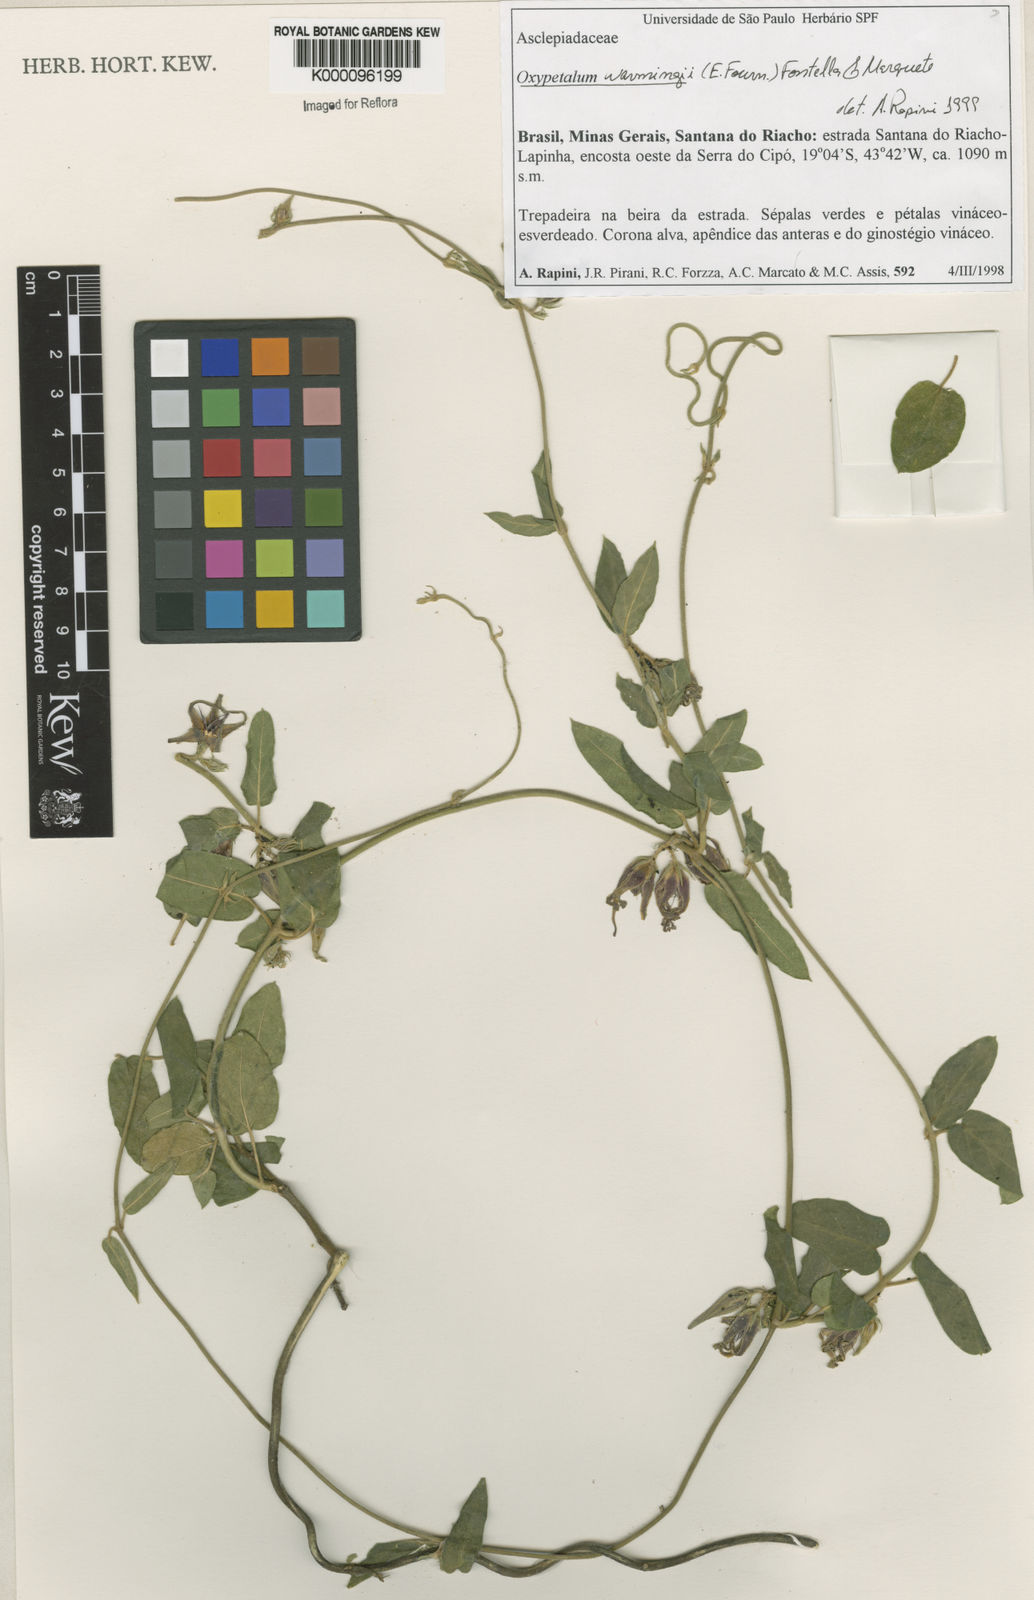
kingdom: Plantae
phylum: Tracheophyta
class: Magnoliopsida
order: Gentianales
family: Apocynaceae
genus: Oxypetalum
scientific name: Oxypetalum warmingii
